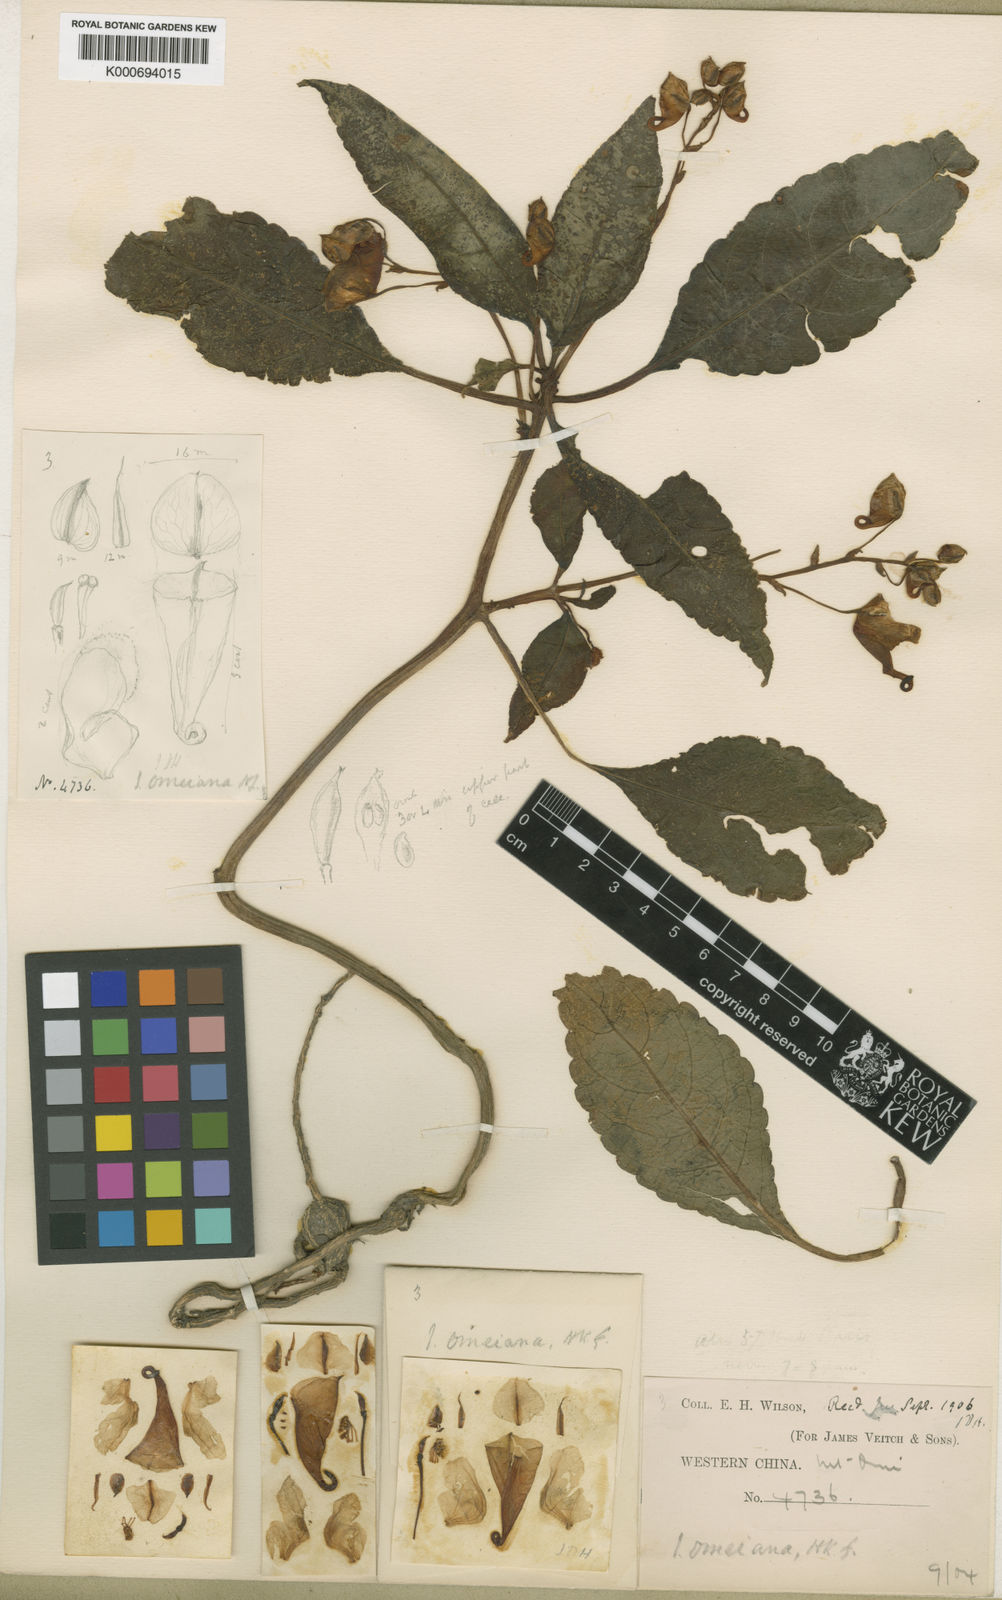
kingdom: Plantae
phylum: Tracheophyta
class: Magnoliopsida
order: Ericales
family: Balsaminaceae
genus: Impatiens
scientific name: Impatiens omeiana
